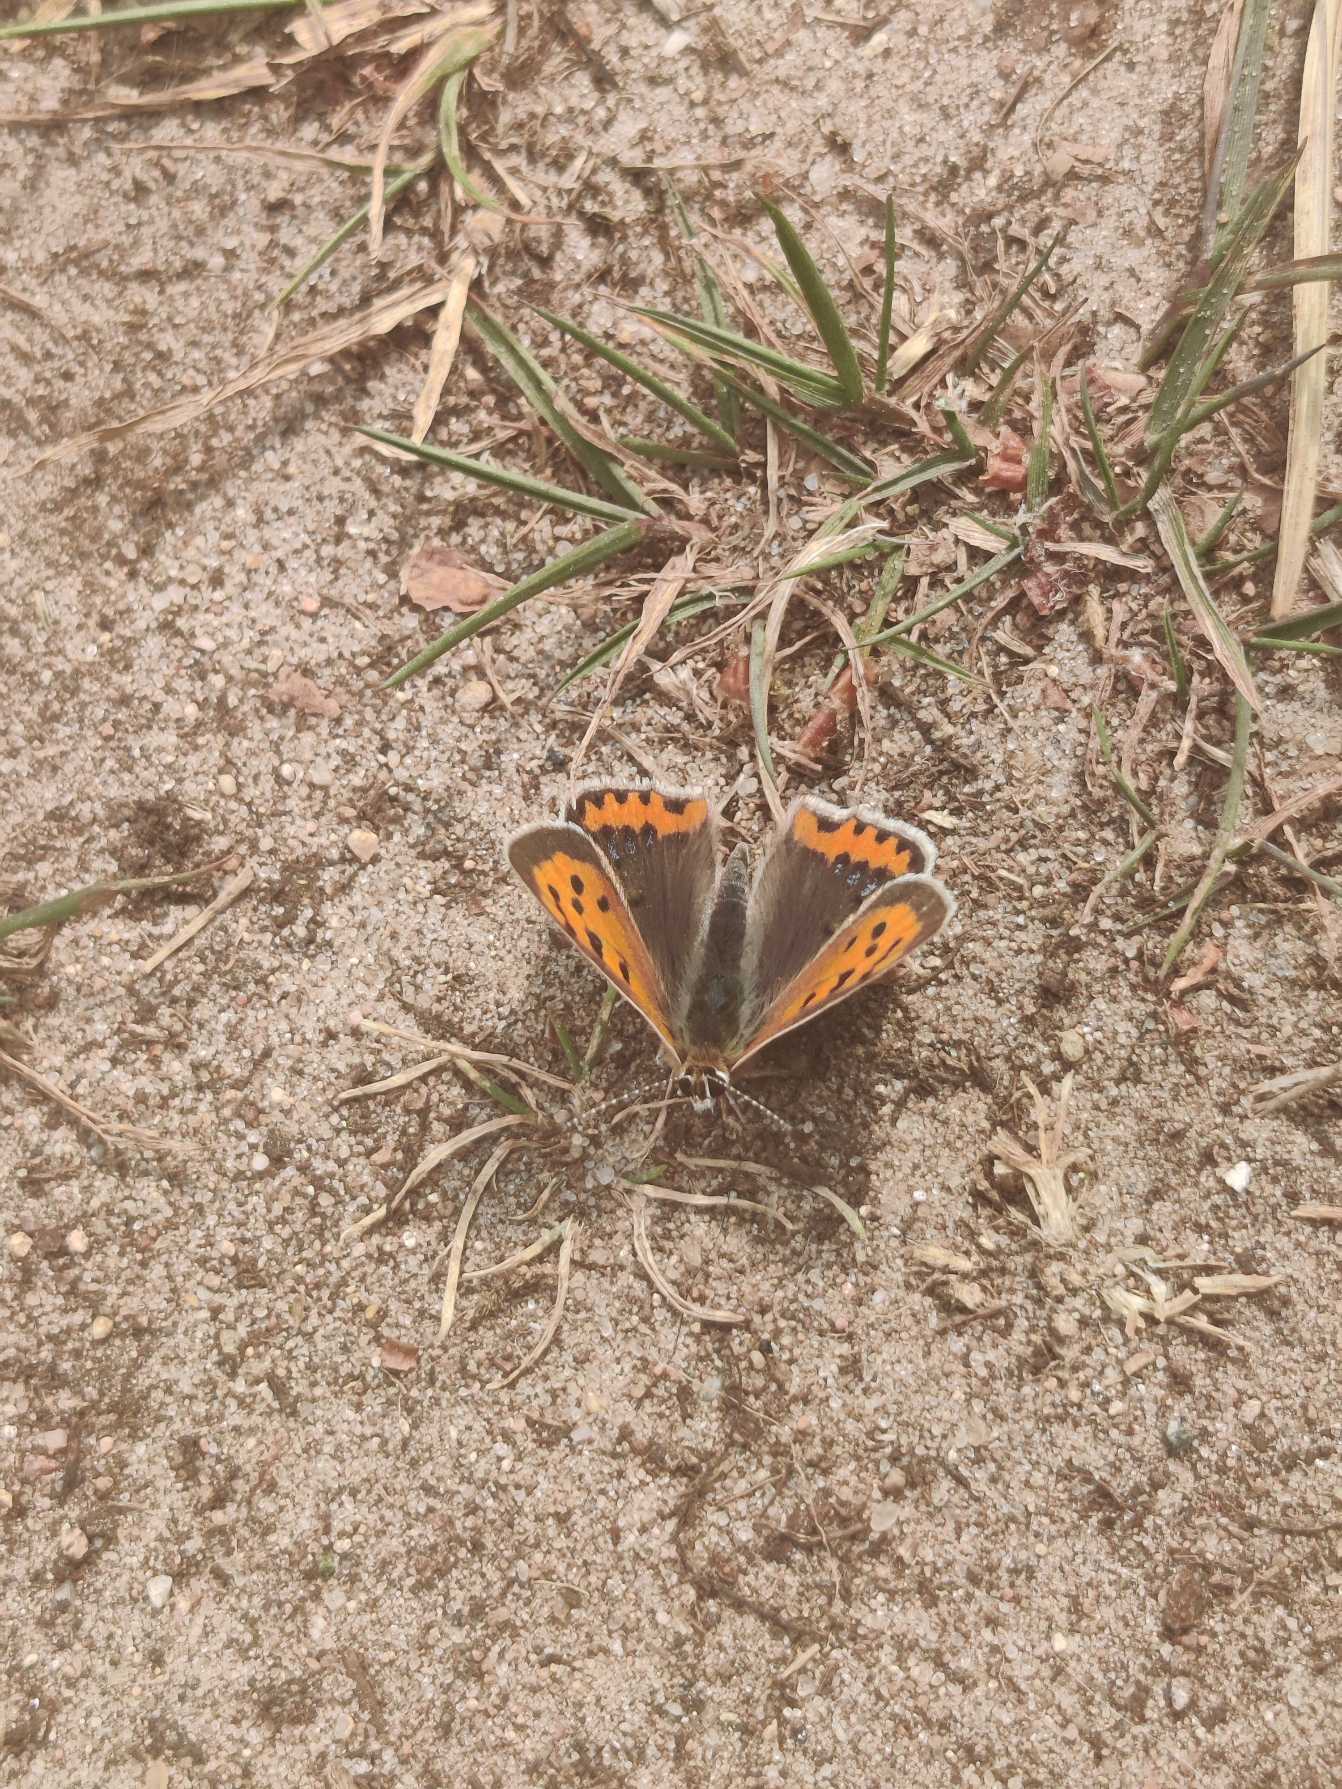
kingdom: Animalia
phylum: Arthropoda
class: Insecta
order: Lepidoptera
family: Lycaenidae
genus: Lycaena
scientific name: Lycaena phlaeas
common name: Lille ildfugl
